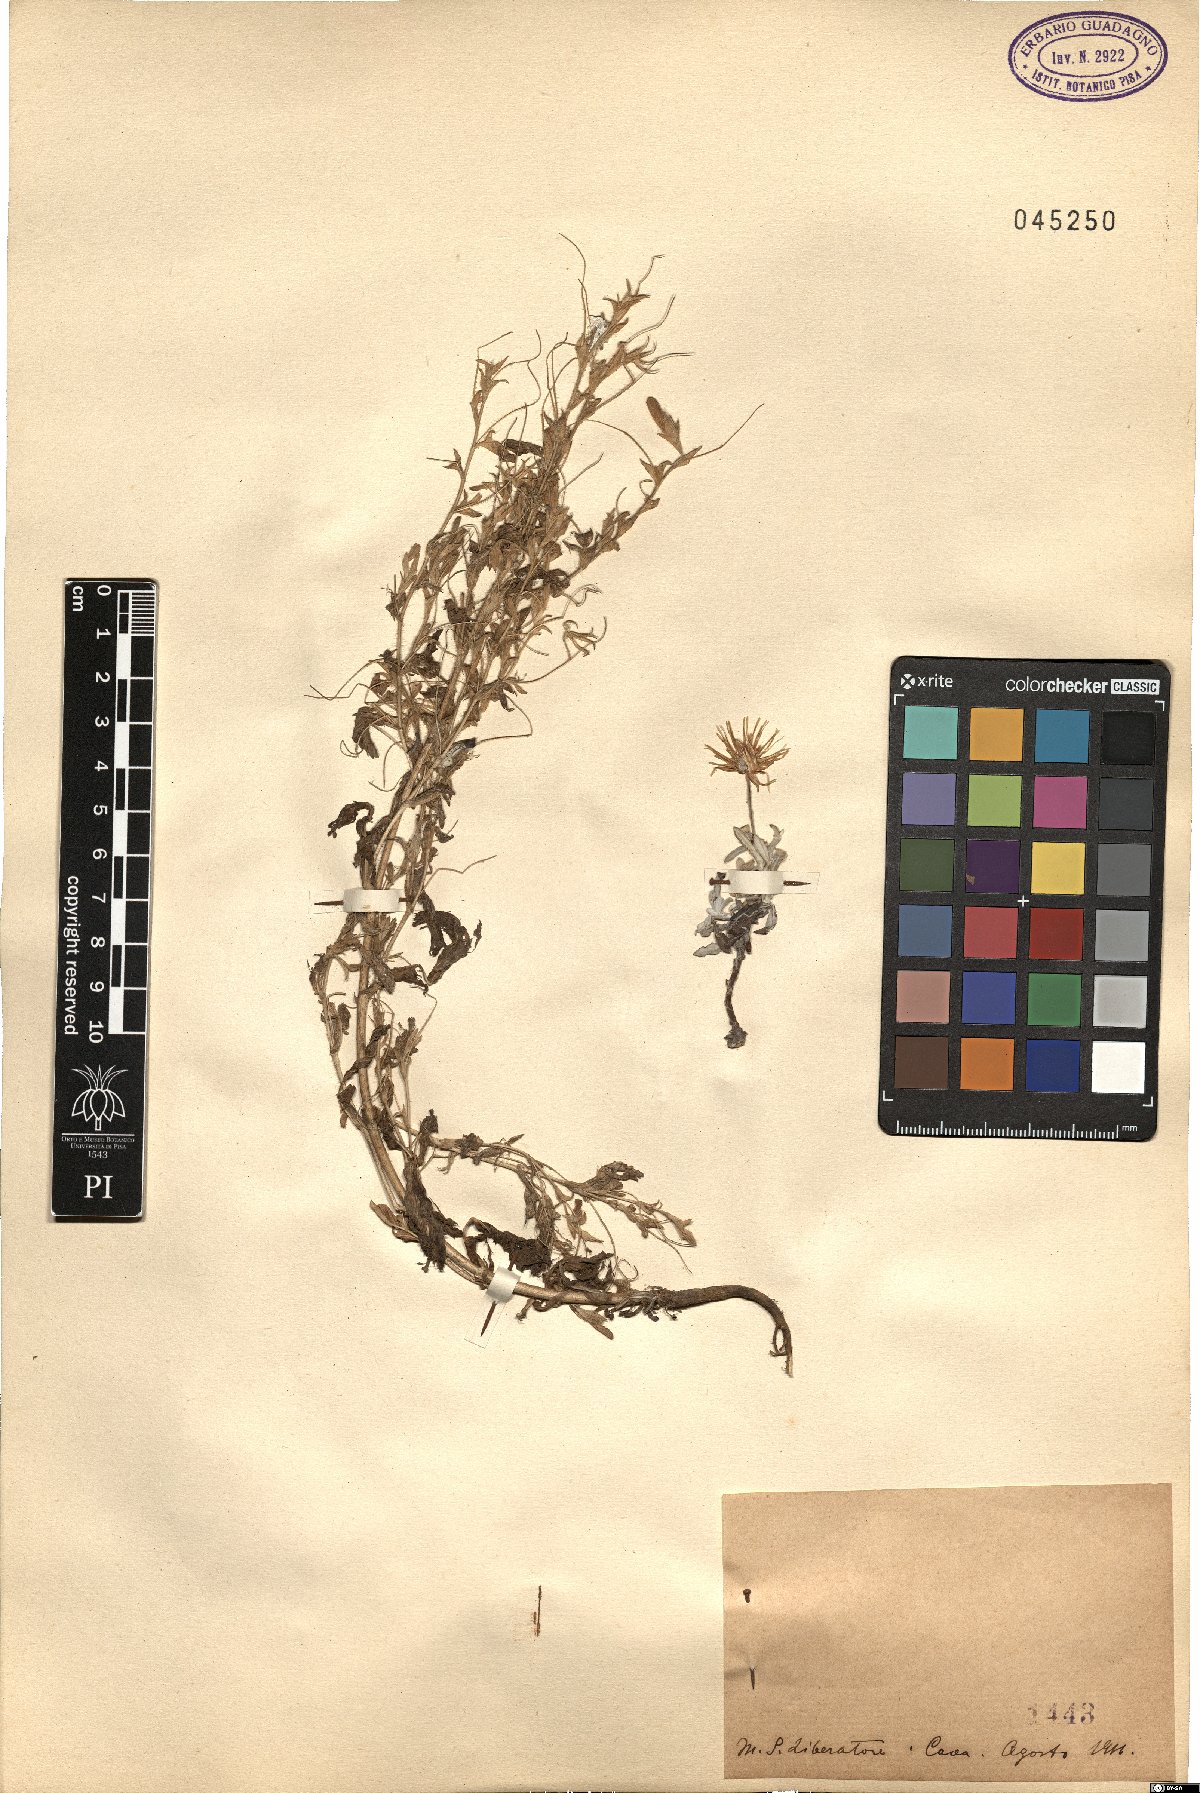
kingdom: Plantae
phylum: Tracheophyta
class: Magnoliopsida
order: Fabales
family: Fabaceae
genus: Ononis
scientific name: Ononis
